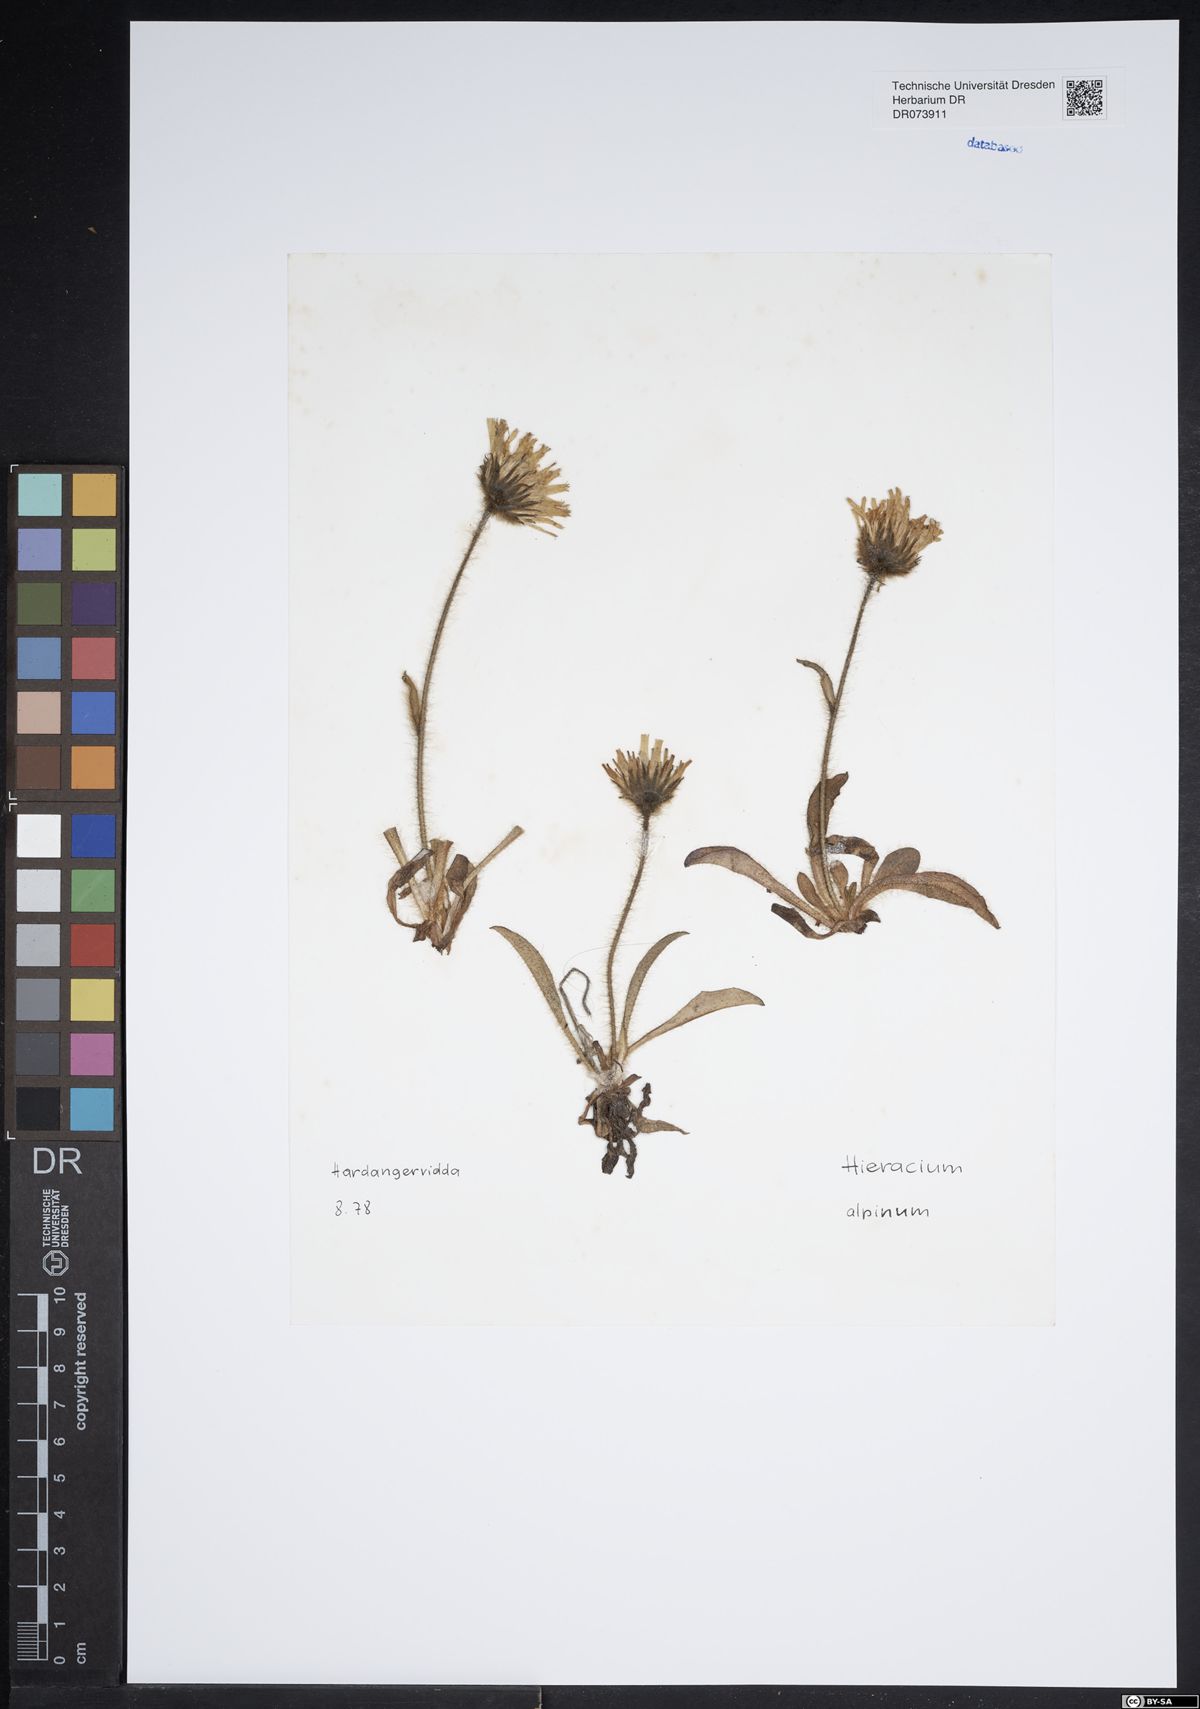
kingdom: Plantae
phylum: Tracheophyta
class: Magnoliopsida
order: Asterales
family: Asteraceae
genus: Hieracium
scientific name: Hieracium alpinum
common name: Alpine hawkweed
